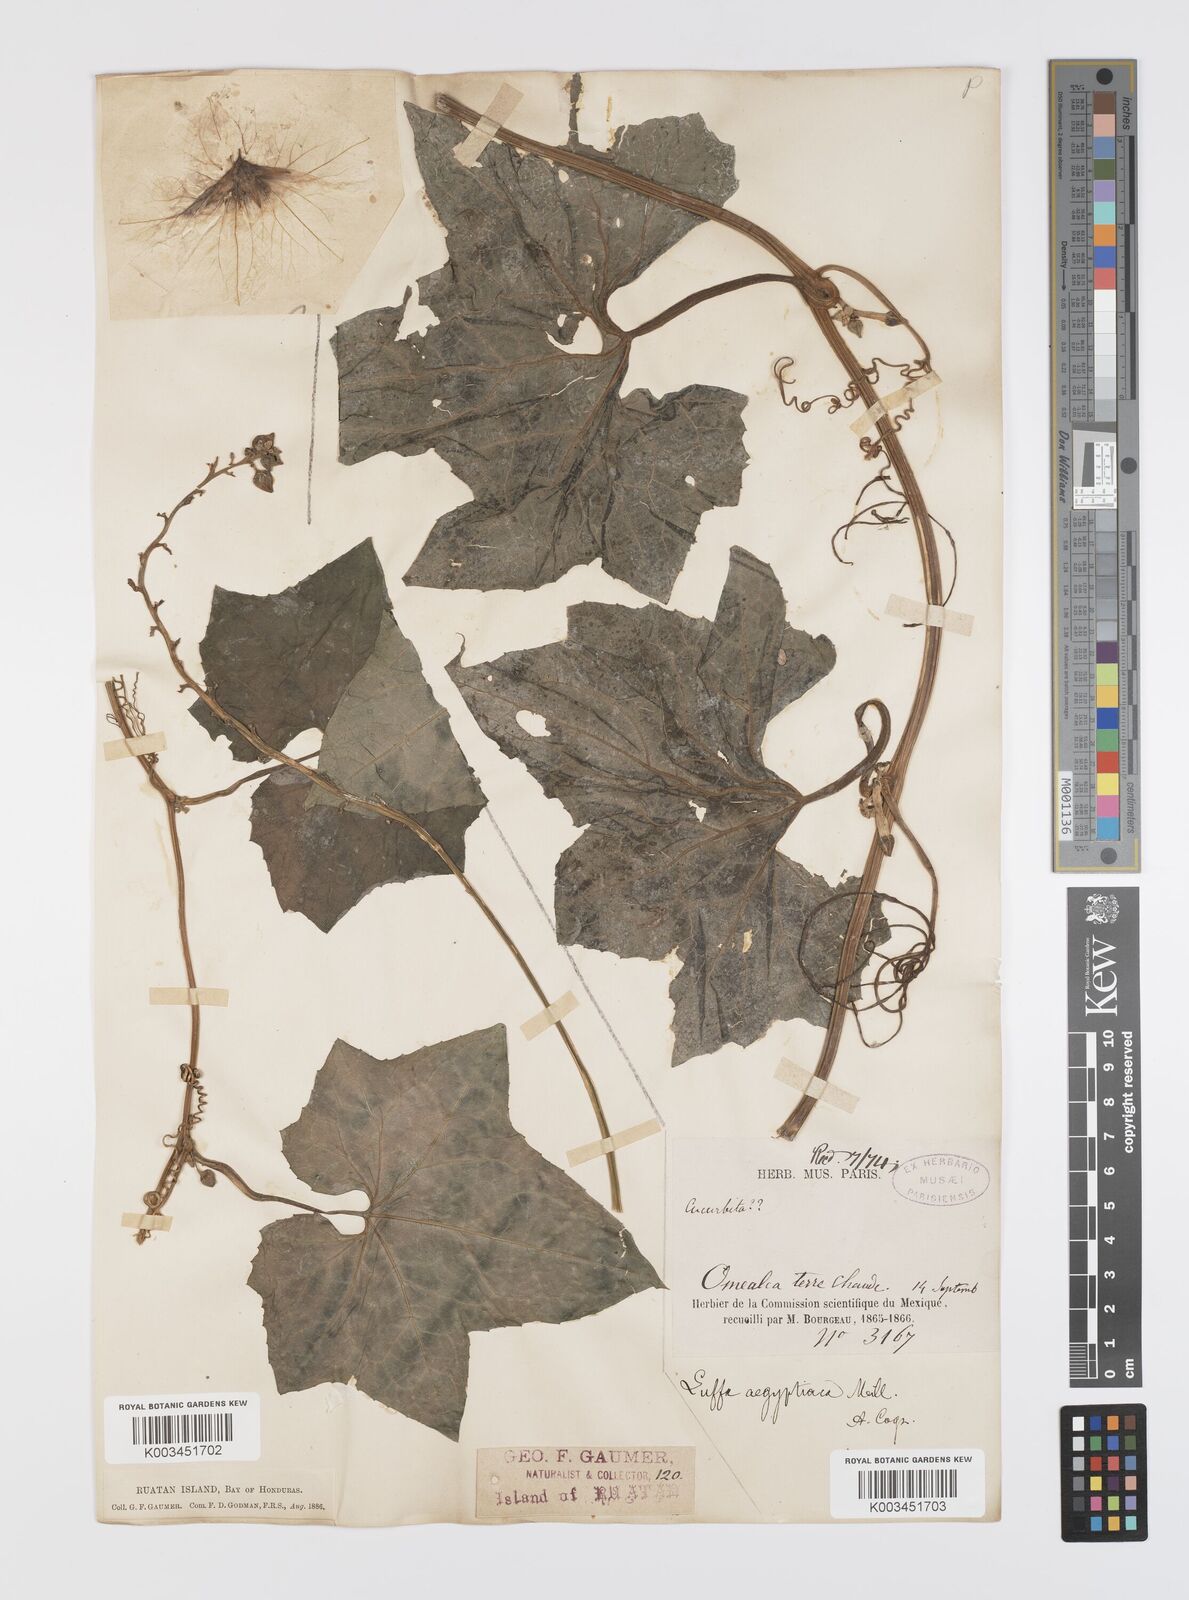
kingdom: Plantae
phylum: Tracheophyta
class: Magnoliopsida
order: Cucurbitales
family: Cucurbitaceae
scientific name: Cucurbitaceae
